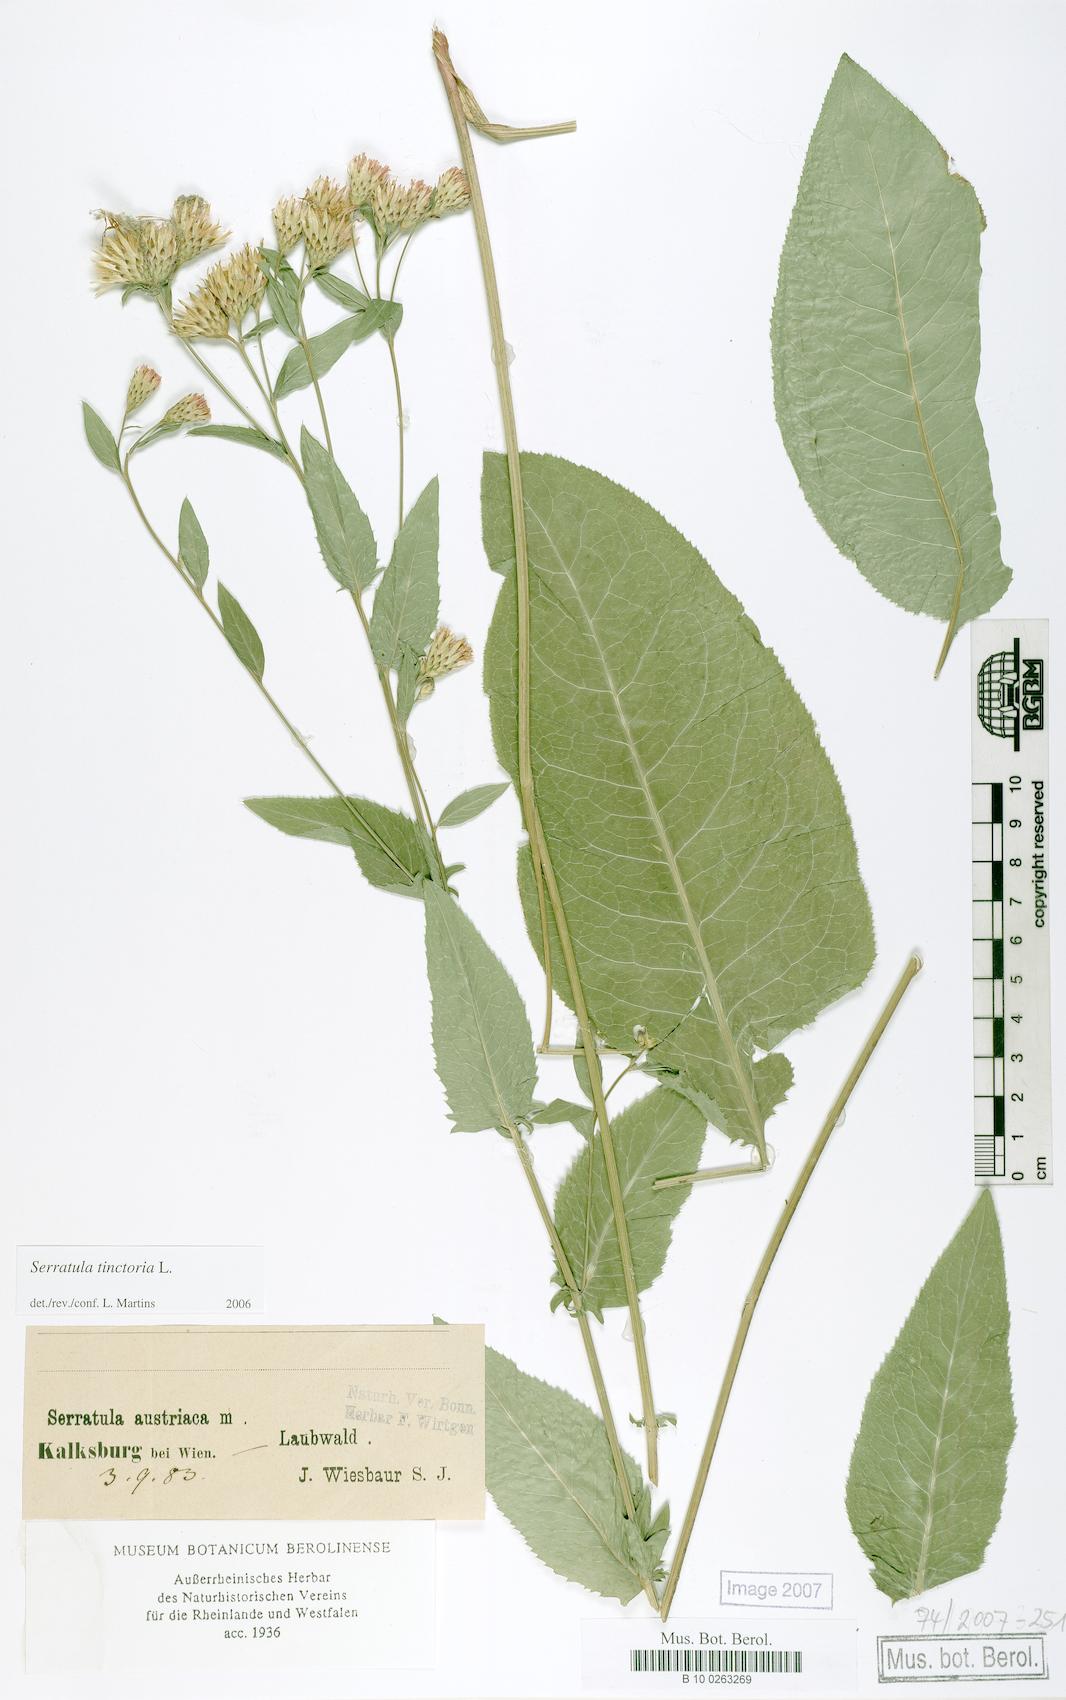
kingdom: Plantae
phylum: Tracheophyta
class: Magnoliopsida
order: Asterales
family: Asteraceae
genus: Serratula
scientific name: Serratula tinctoria
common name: Saw-wort
